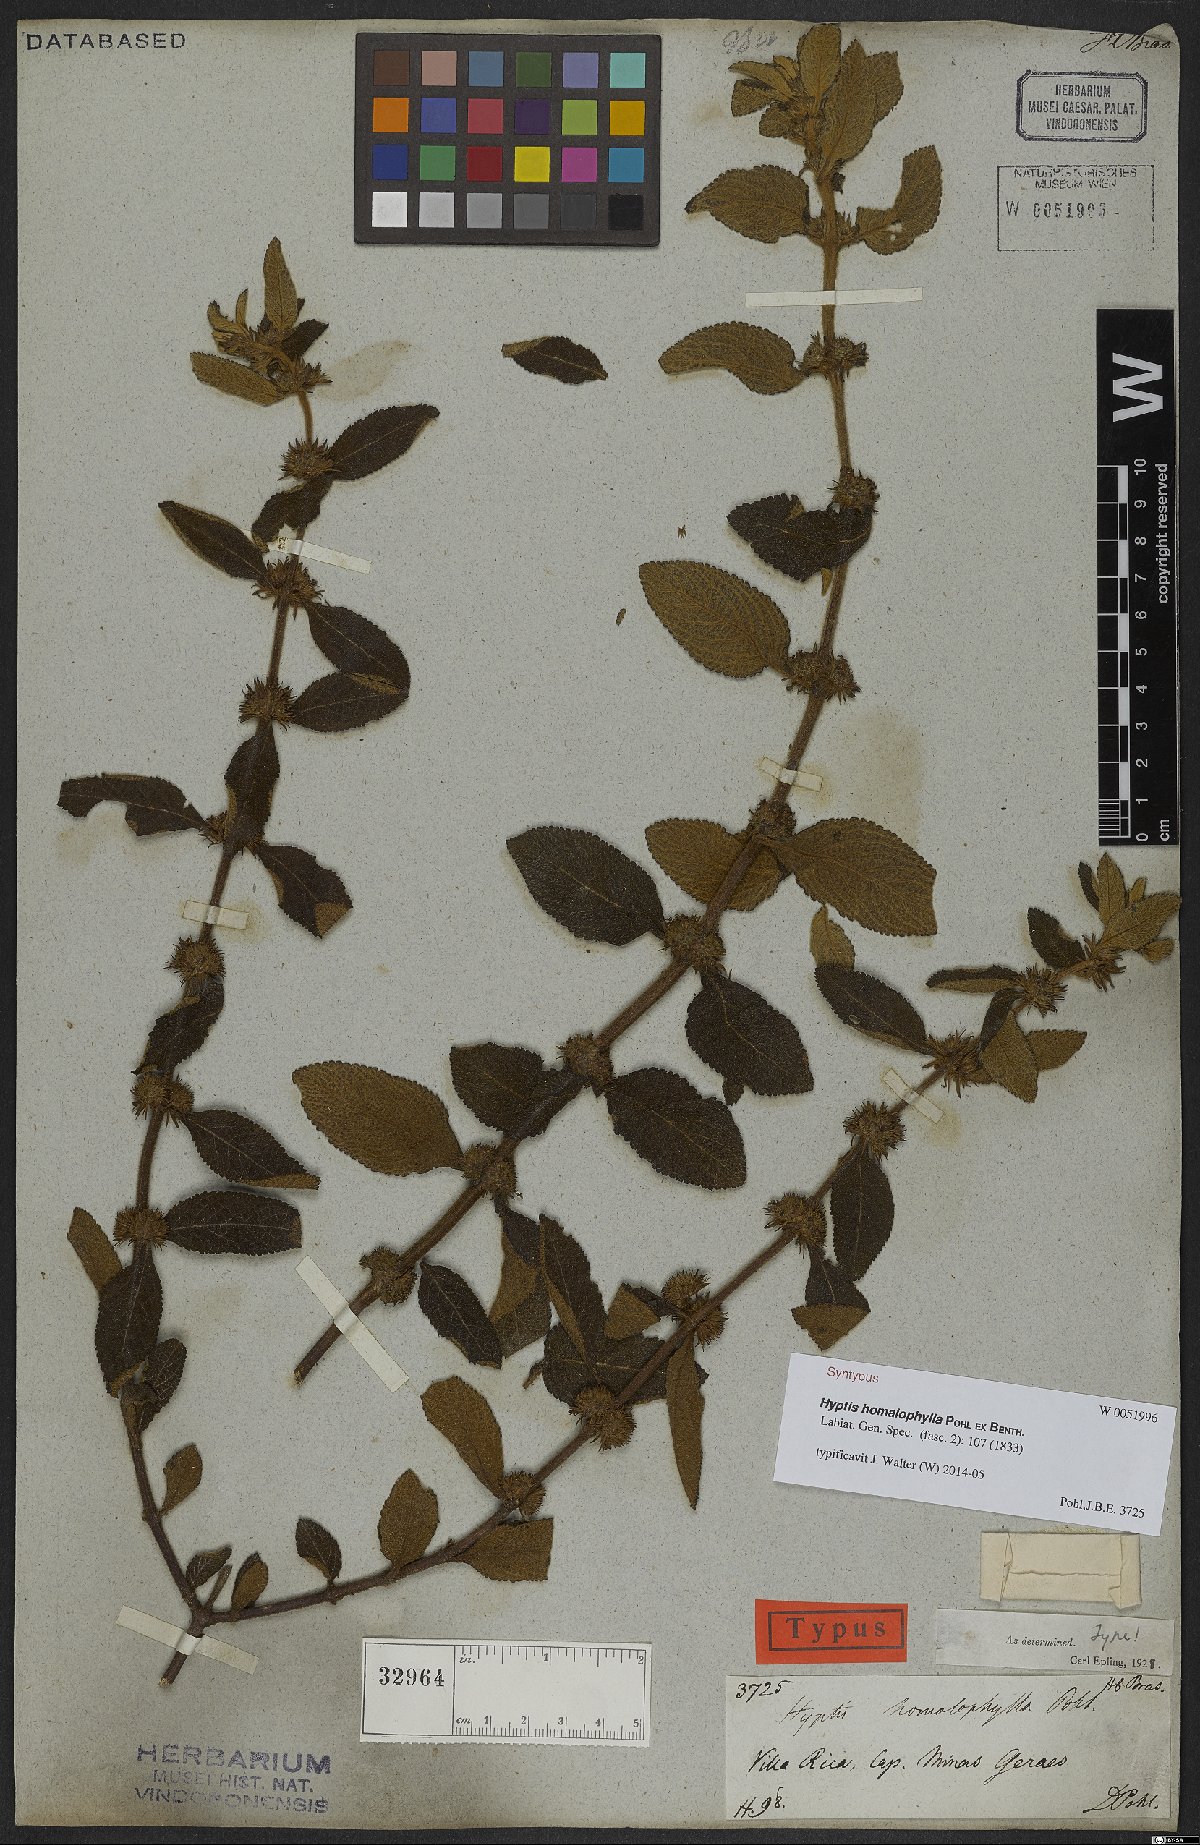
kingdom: Plantae
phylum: Tracheophyta
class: Magnoliopsida
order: Lamiales
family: Lamiaceae
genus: Hyptis
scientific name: Hyptis homalophylla
